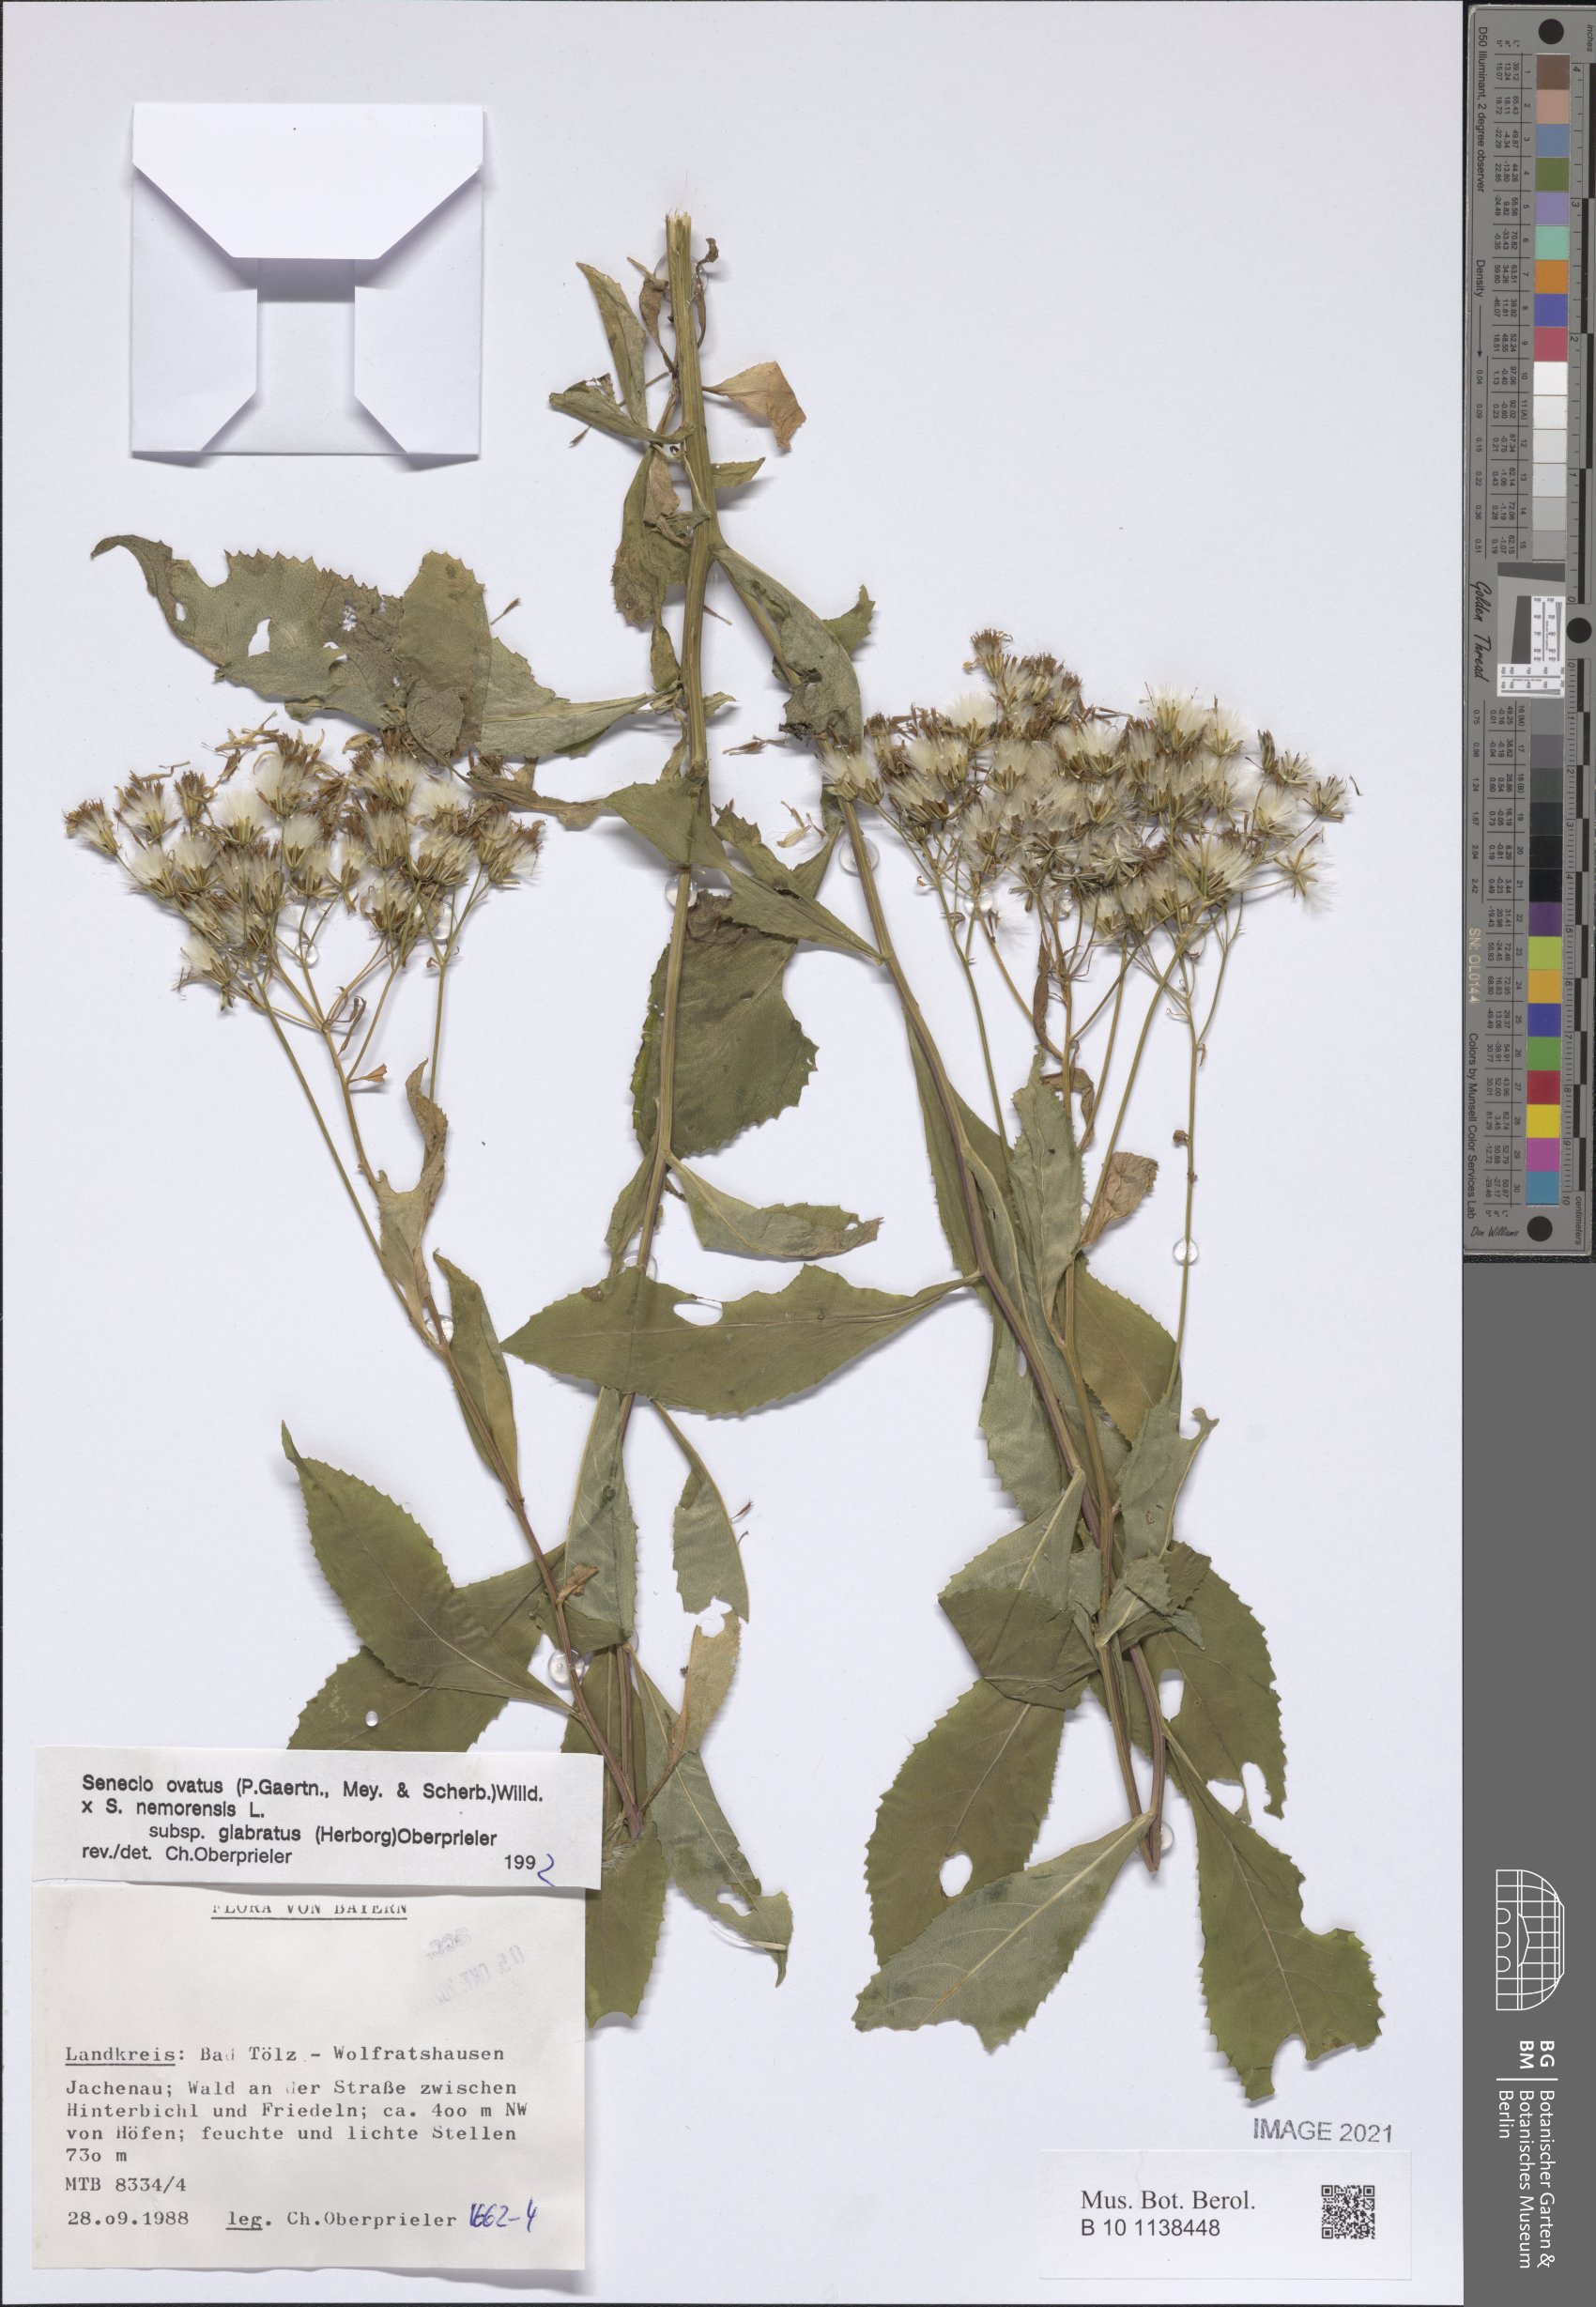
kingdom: Plantae
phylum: Tracheophyta
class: Magnoliopsida
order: Asterales
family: Asteraceae
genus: Senecio
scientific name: Senecio ovatus
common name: Wood ragwort
